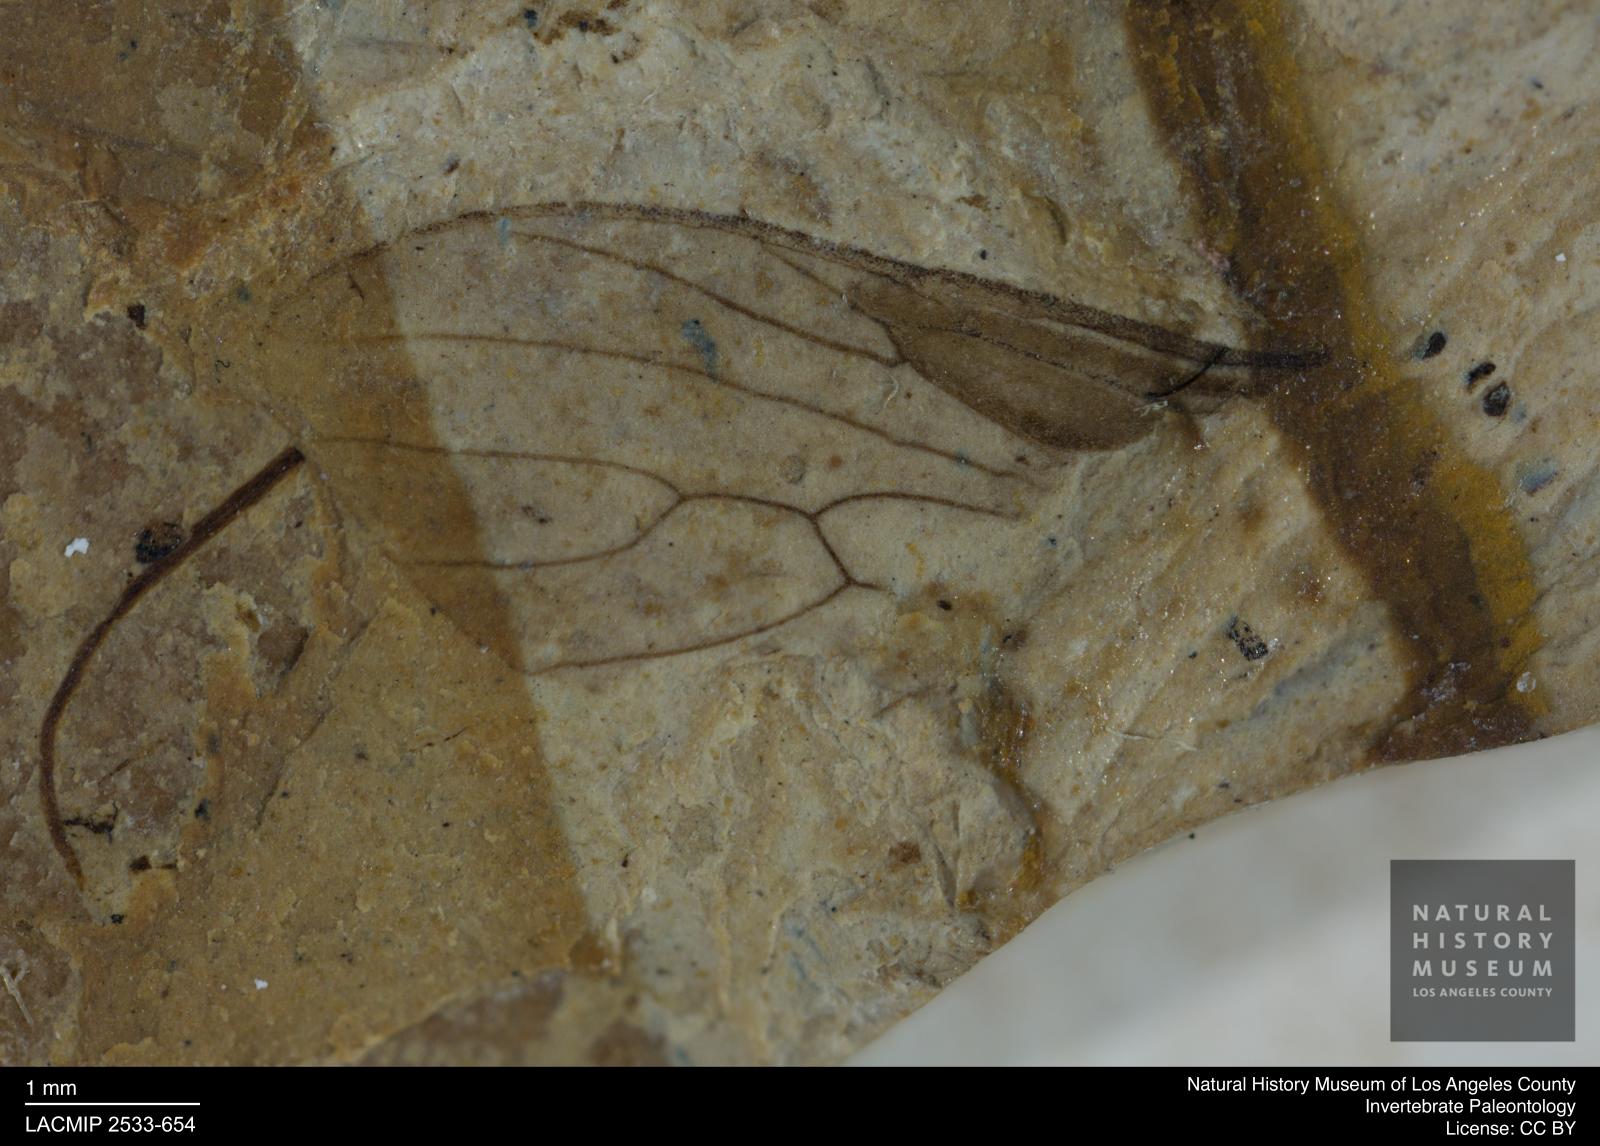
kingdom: Animalia
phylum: Arthropoda
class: Insecta
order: Diptera
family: Tipulidae
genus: Tipula
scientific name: Tipula
